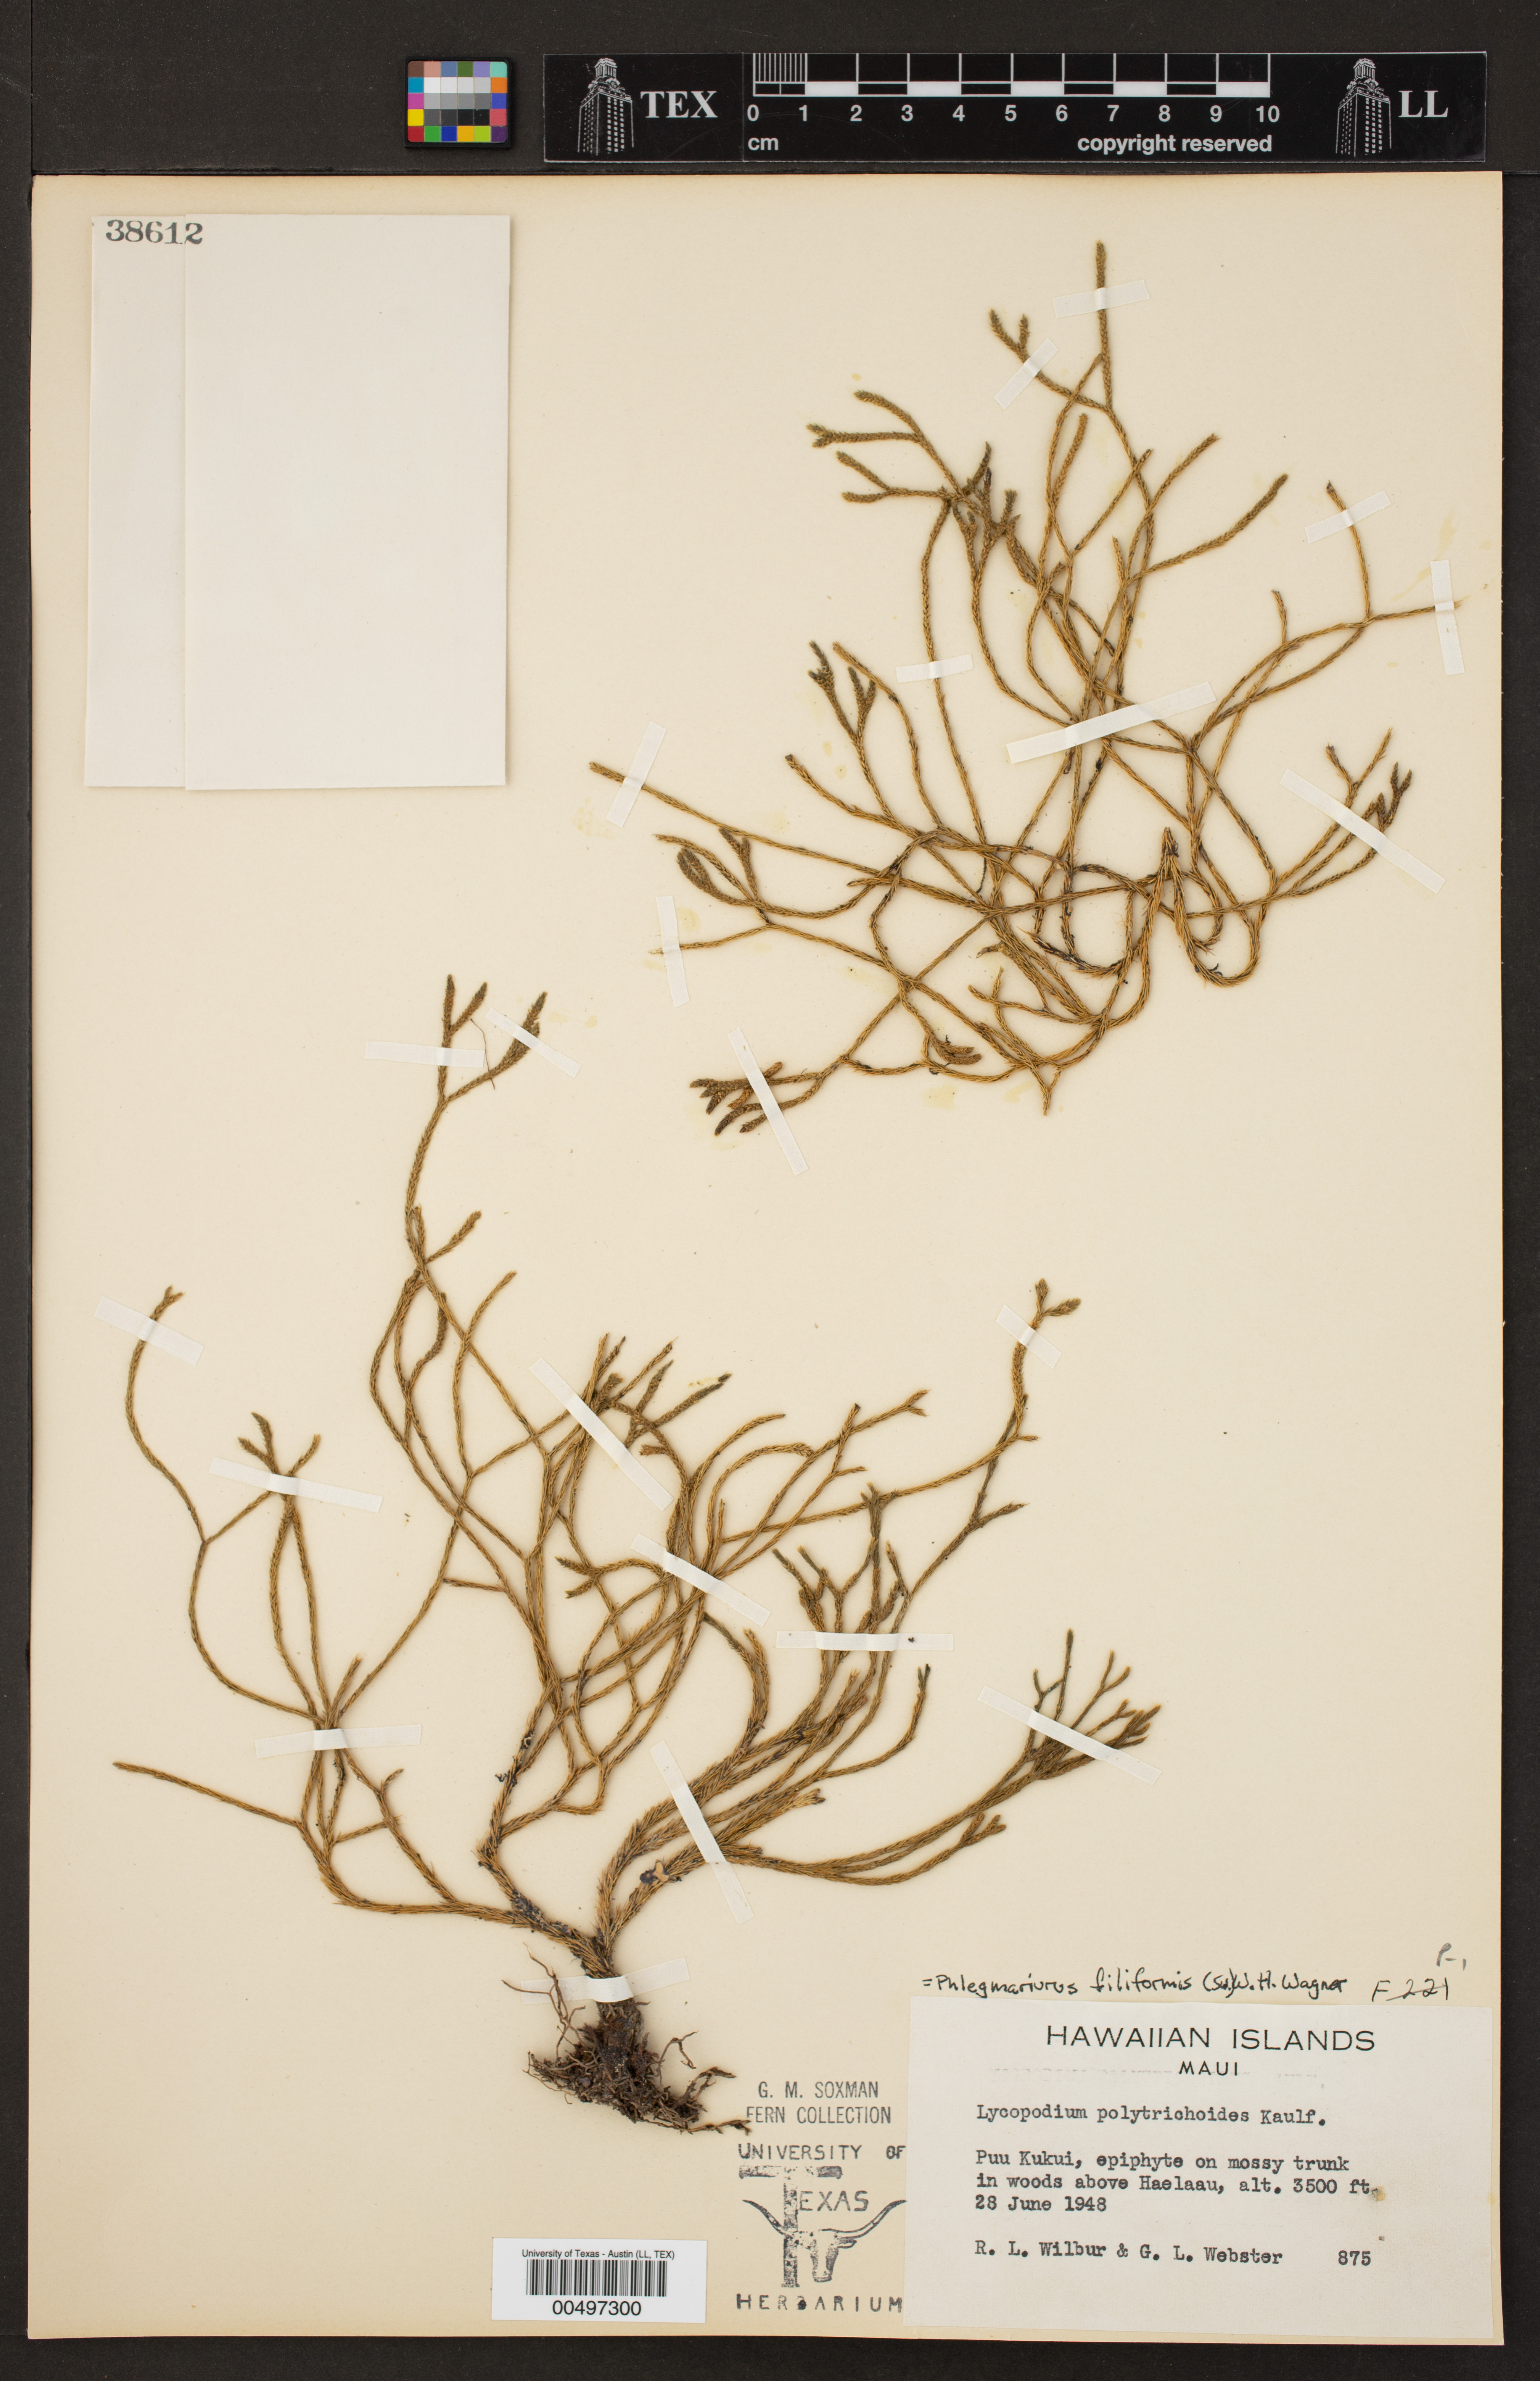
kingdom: Plantae
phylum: Tracheophyta
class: Lycopodiopsida
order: Lycopodiales
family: Lycopodiaceae
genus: Phlegmariurus
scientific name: Phlegmariurus filiformis
